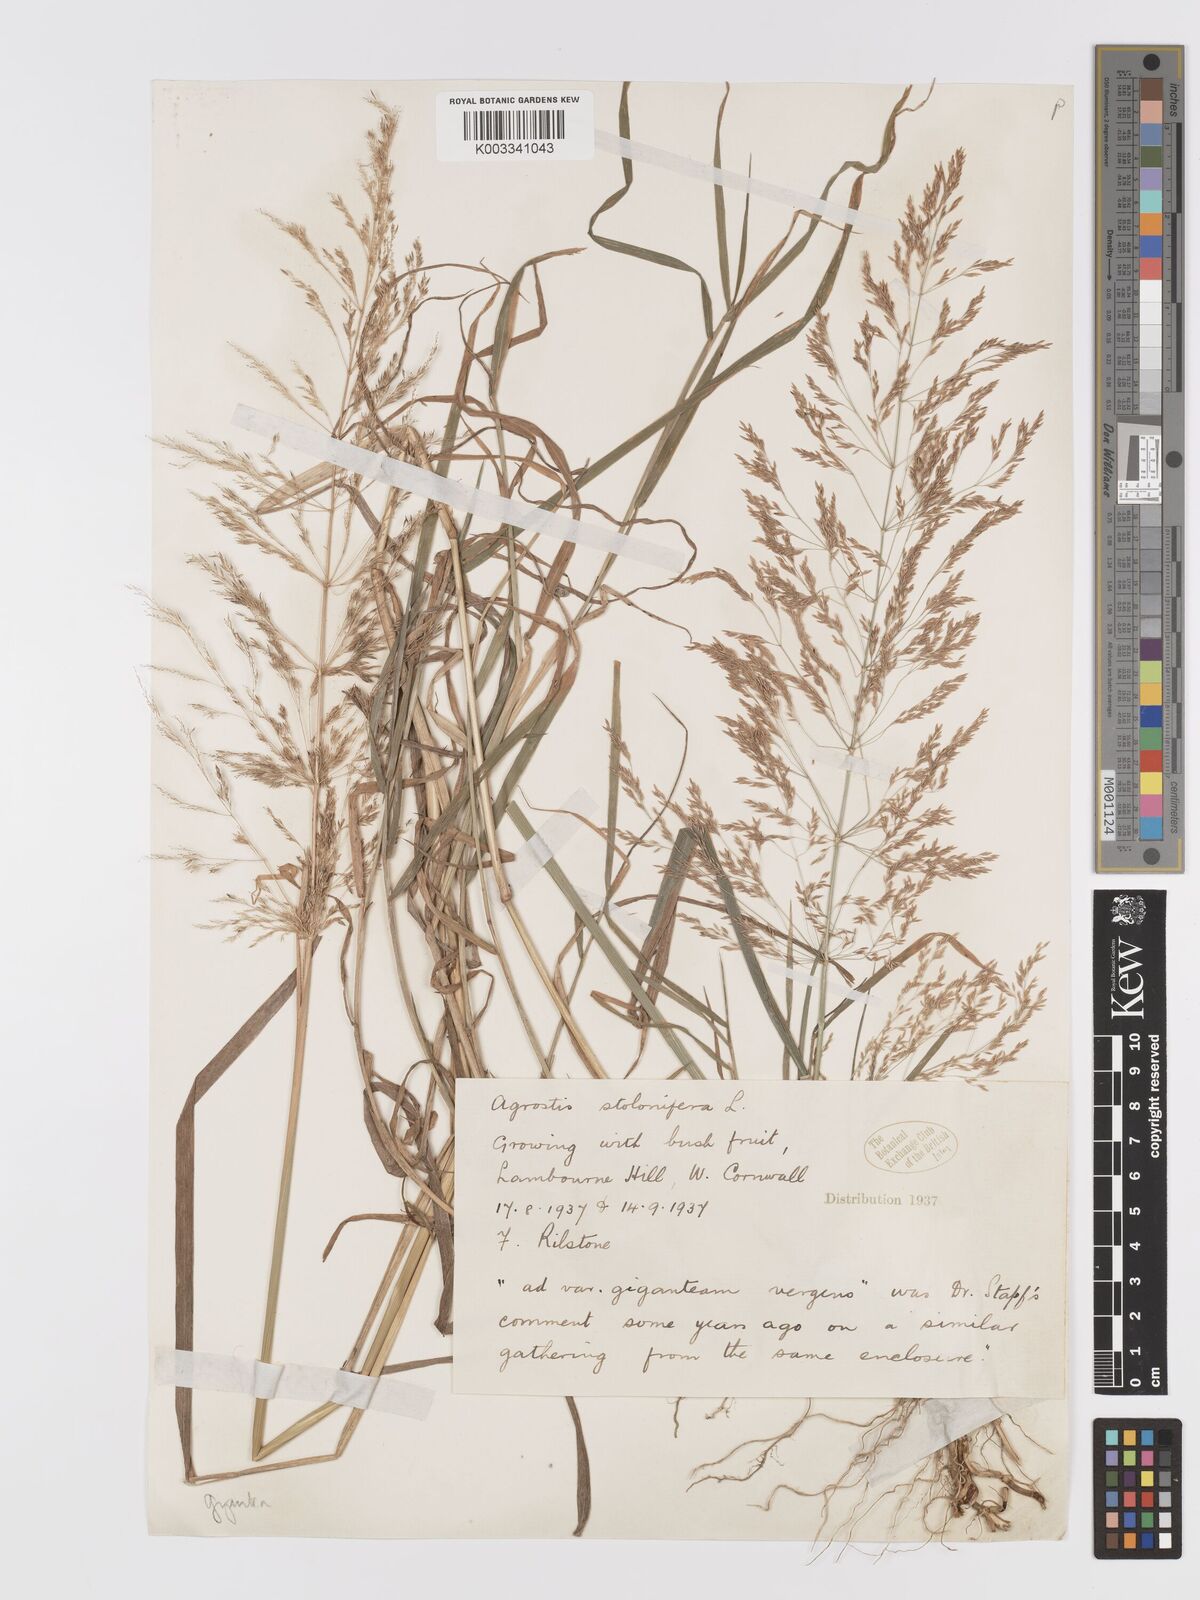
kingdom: Plantae
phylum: Tracheophyta
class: Liliopsida
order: Poales
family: Poaceae
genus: Agrostis
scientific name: Agrostis gigantea
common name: Black bent
